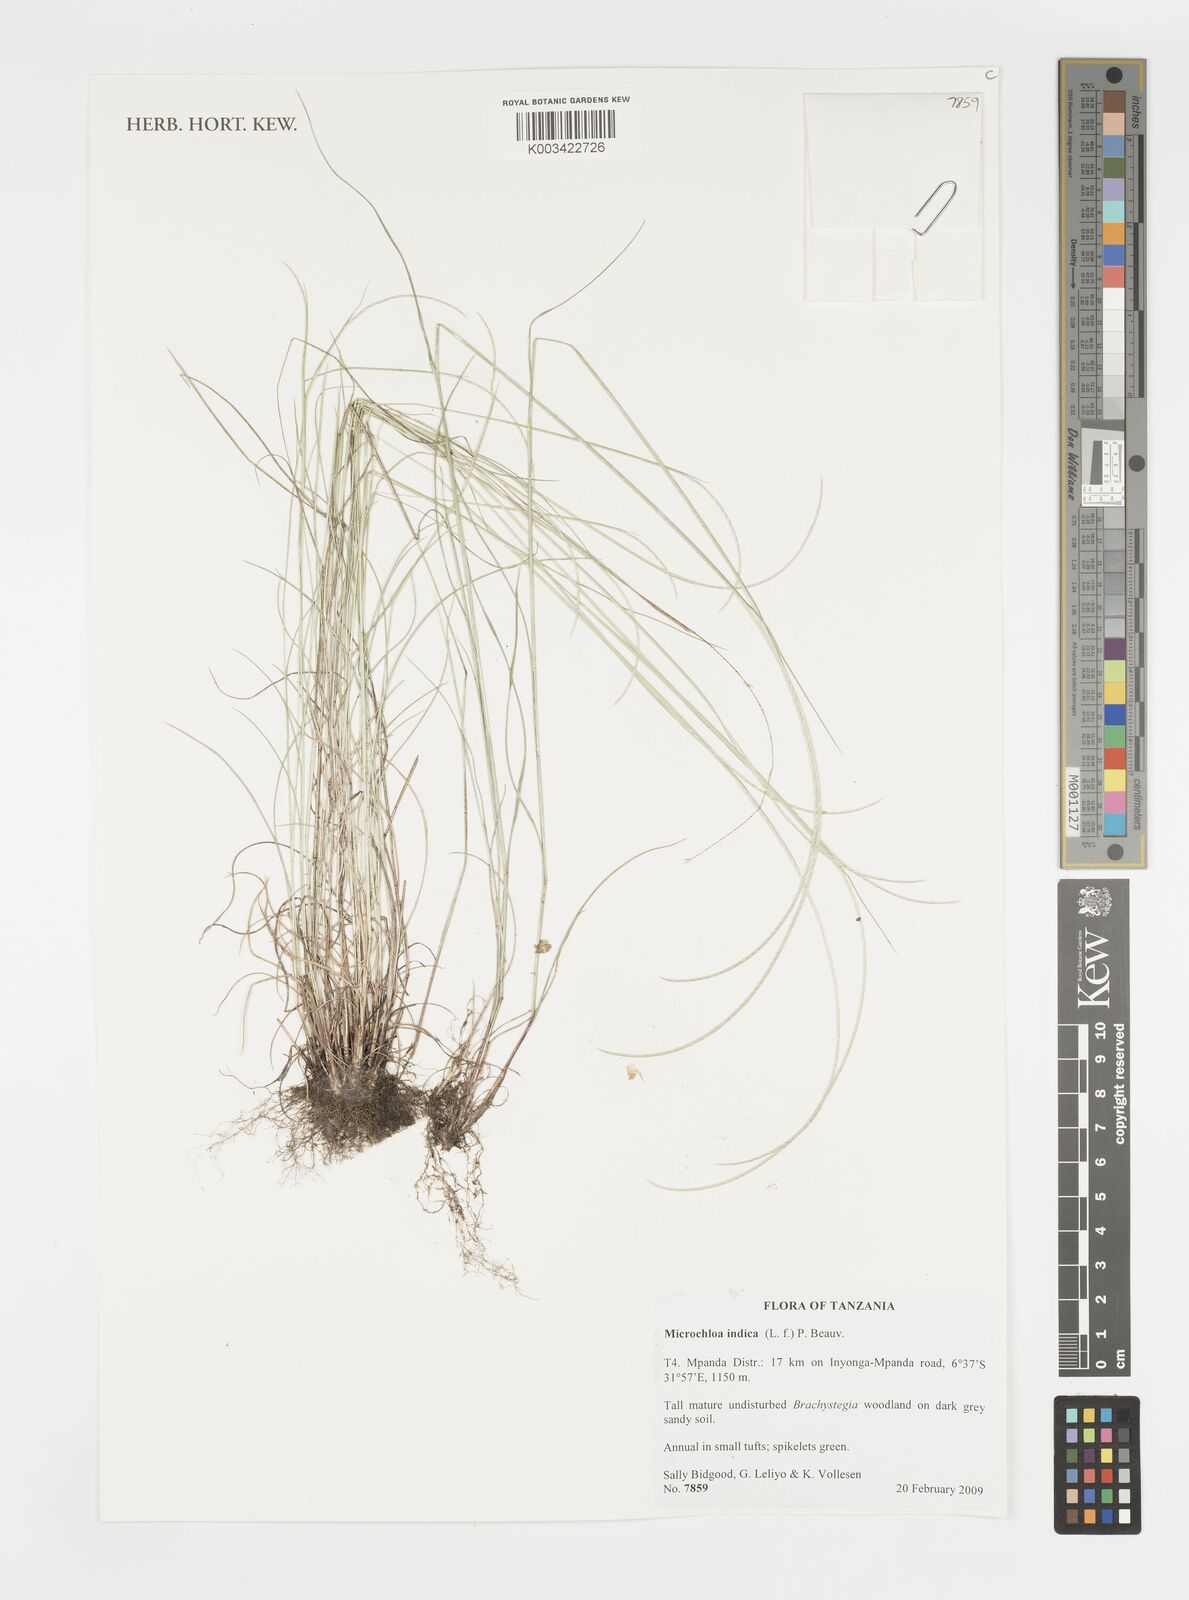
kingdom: Plantae
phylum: Tracheophyta
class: Liliopsida
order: Poales
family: Poaceae
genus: Microchloa
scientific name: Microchloa indica
